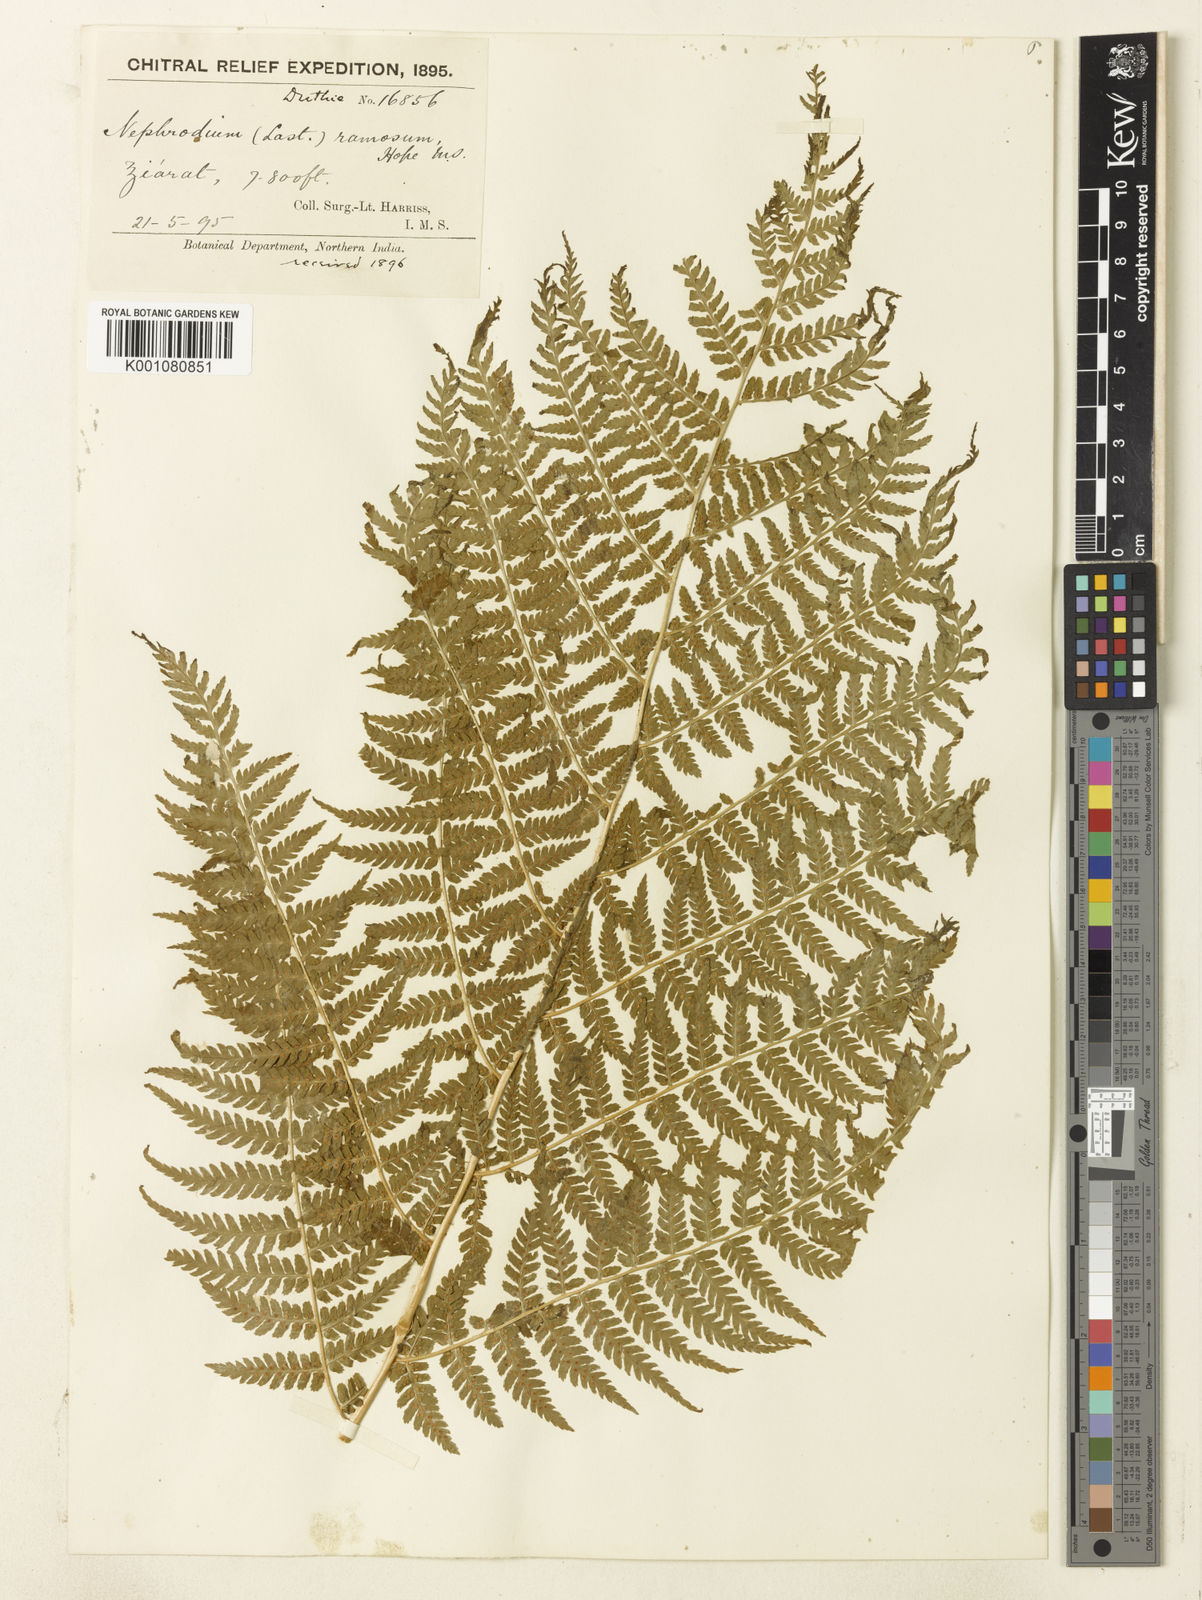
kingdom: Plantae
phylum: Tracheophyta
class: Polypodiopsida
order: Polypodiales
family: Dryopteridaceae
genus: Dryopteris
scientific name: Dryopteris ramosa
